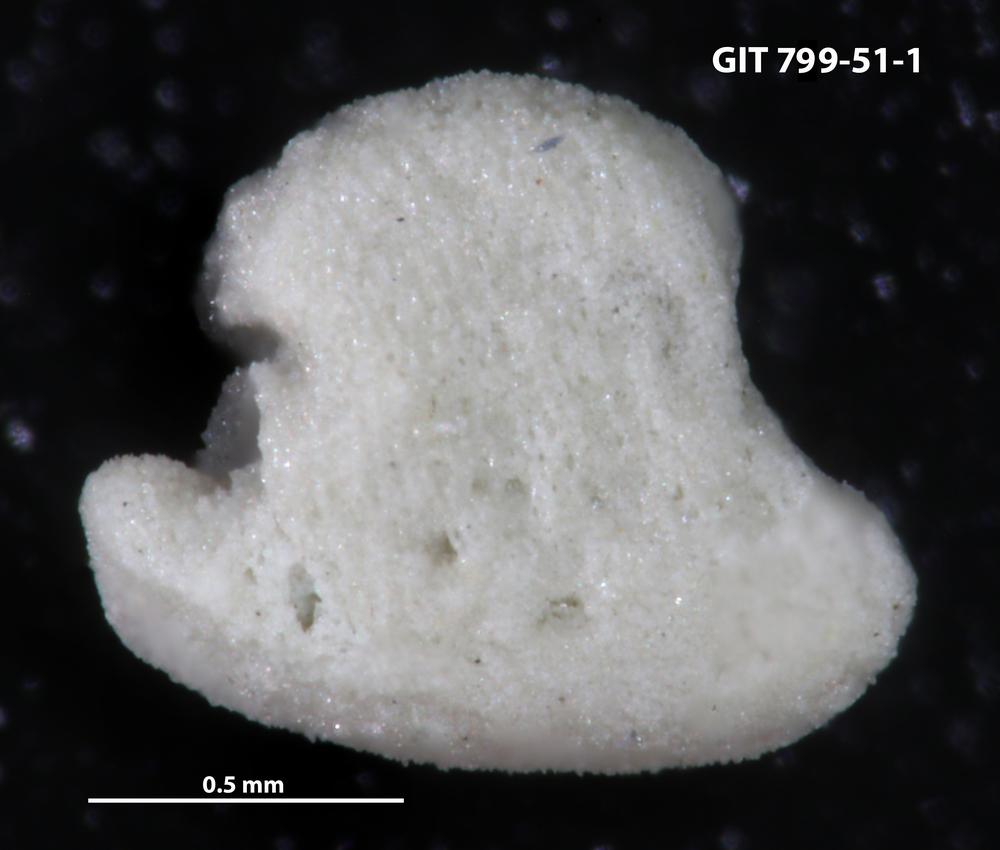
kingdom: Animalia
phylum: Echinodermata
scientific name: Echinodermata
